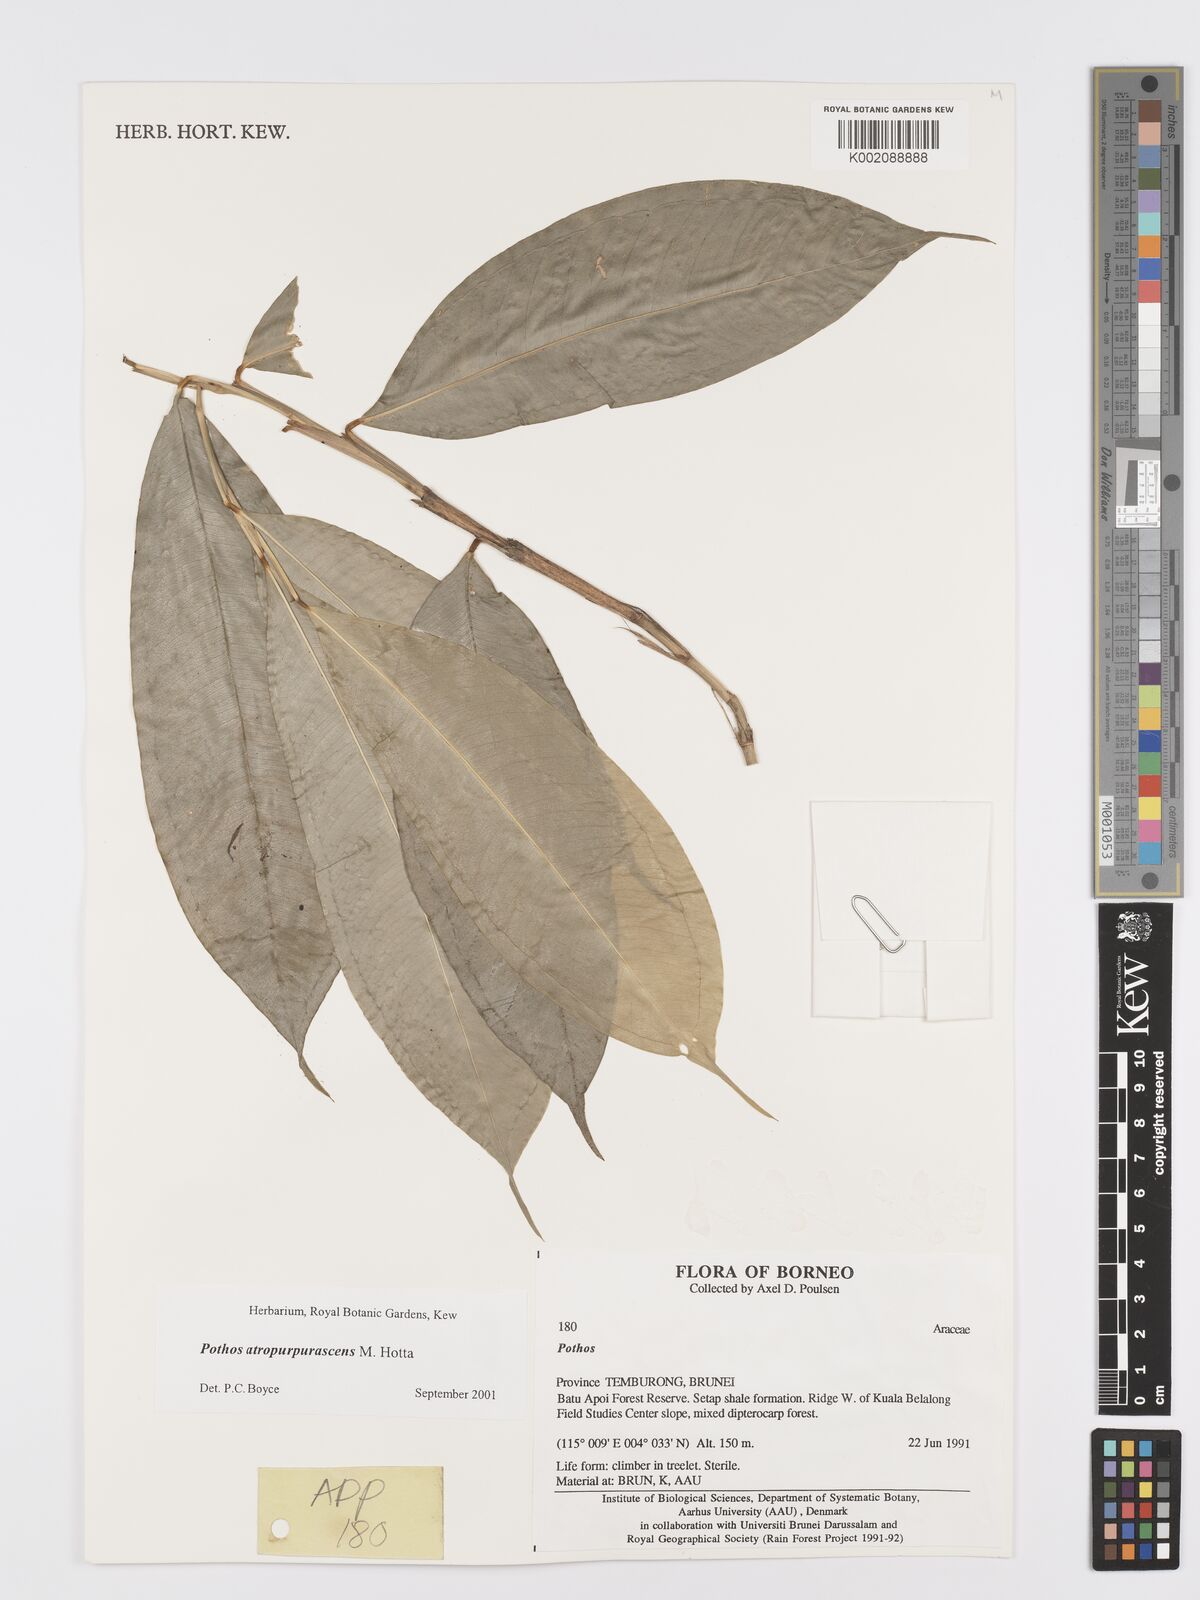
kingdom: Plantae
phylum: Tracheophyta
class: Liliopsida
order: Alismatales
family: Araceae
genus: Pothos
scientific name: Pothos atropurpurascens
